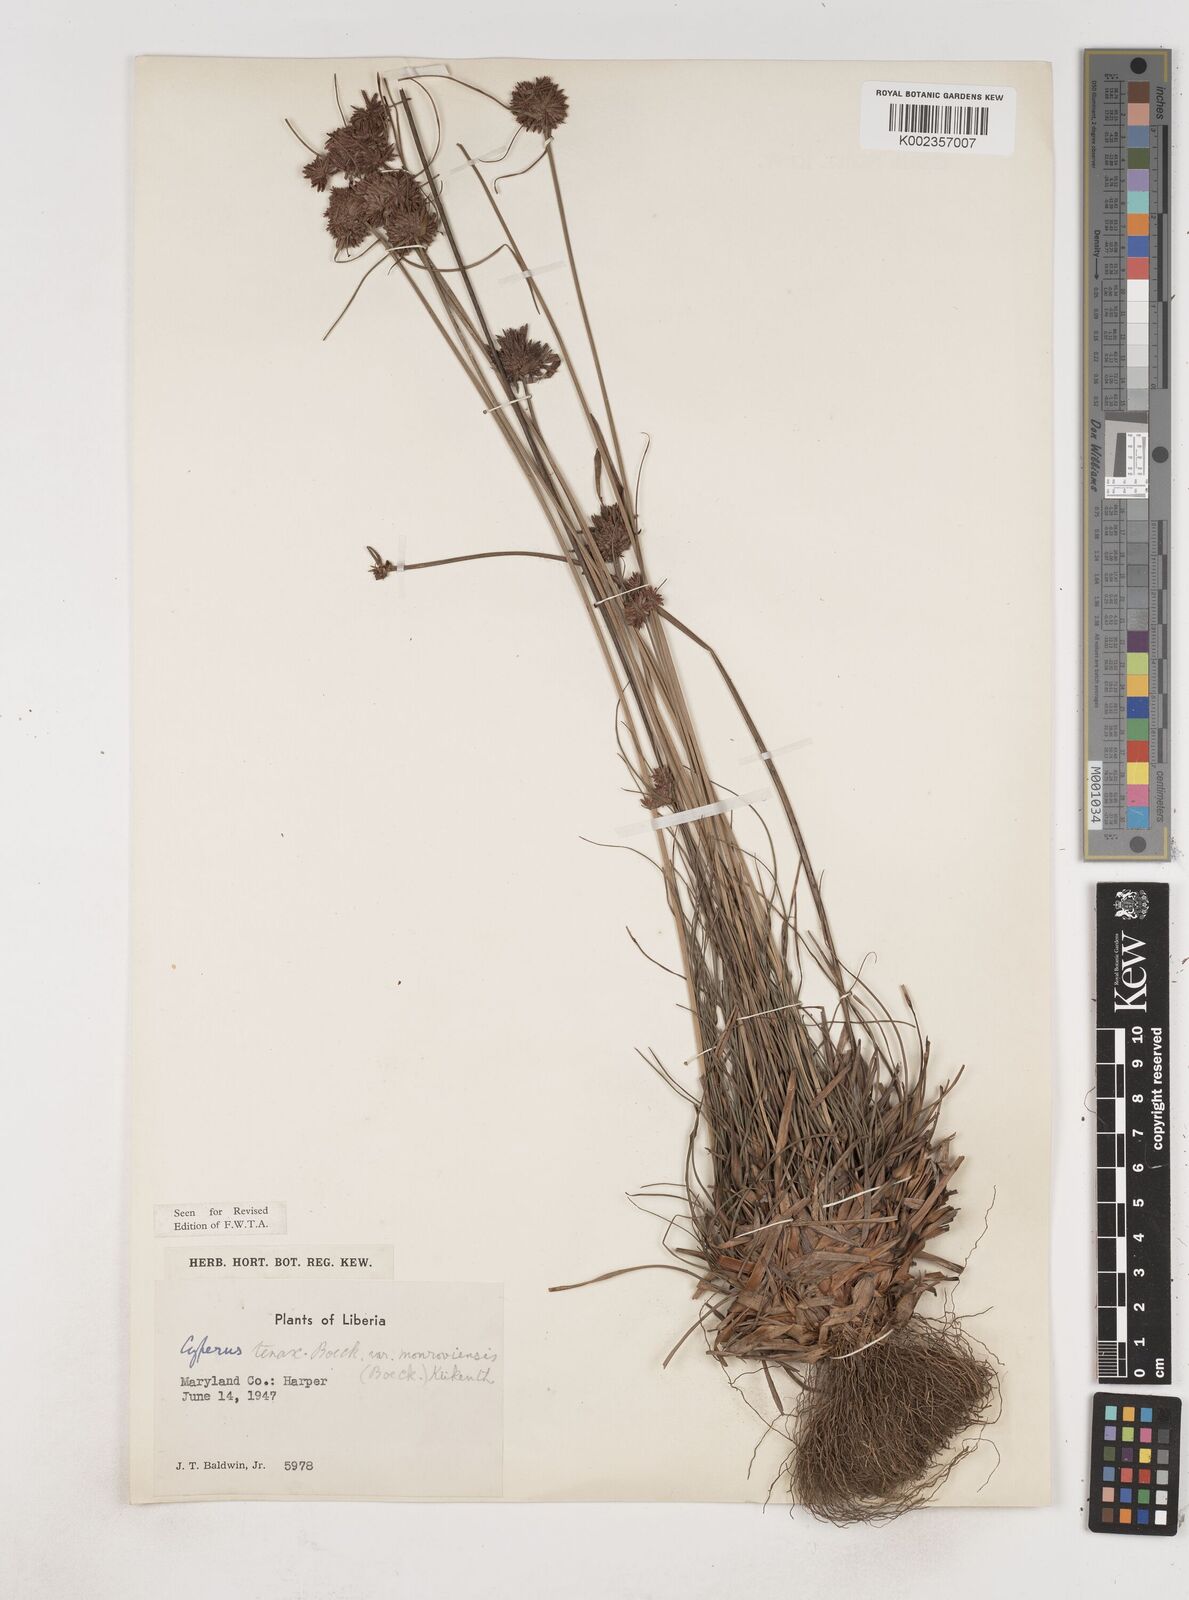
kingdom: Plantae
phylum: Tracheophyta
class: Liliopsida
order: Poales
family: Cyperaceae
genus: Cyperus
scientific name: Cyperus tenax
